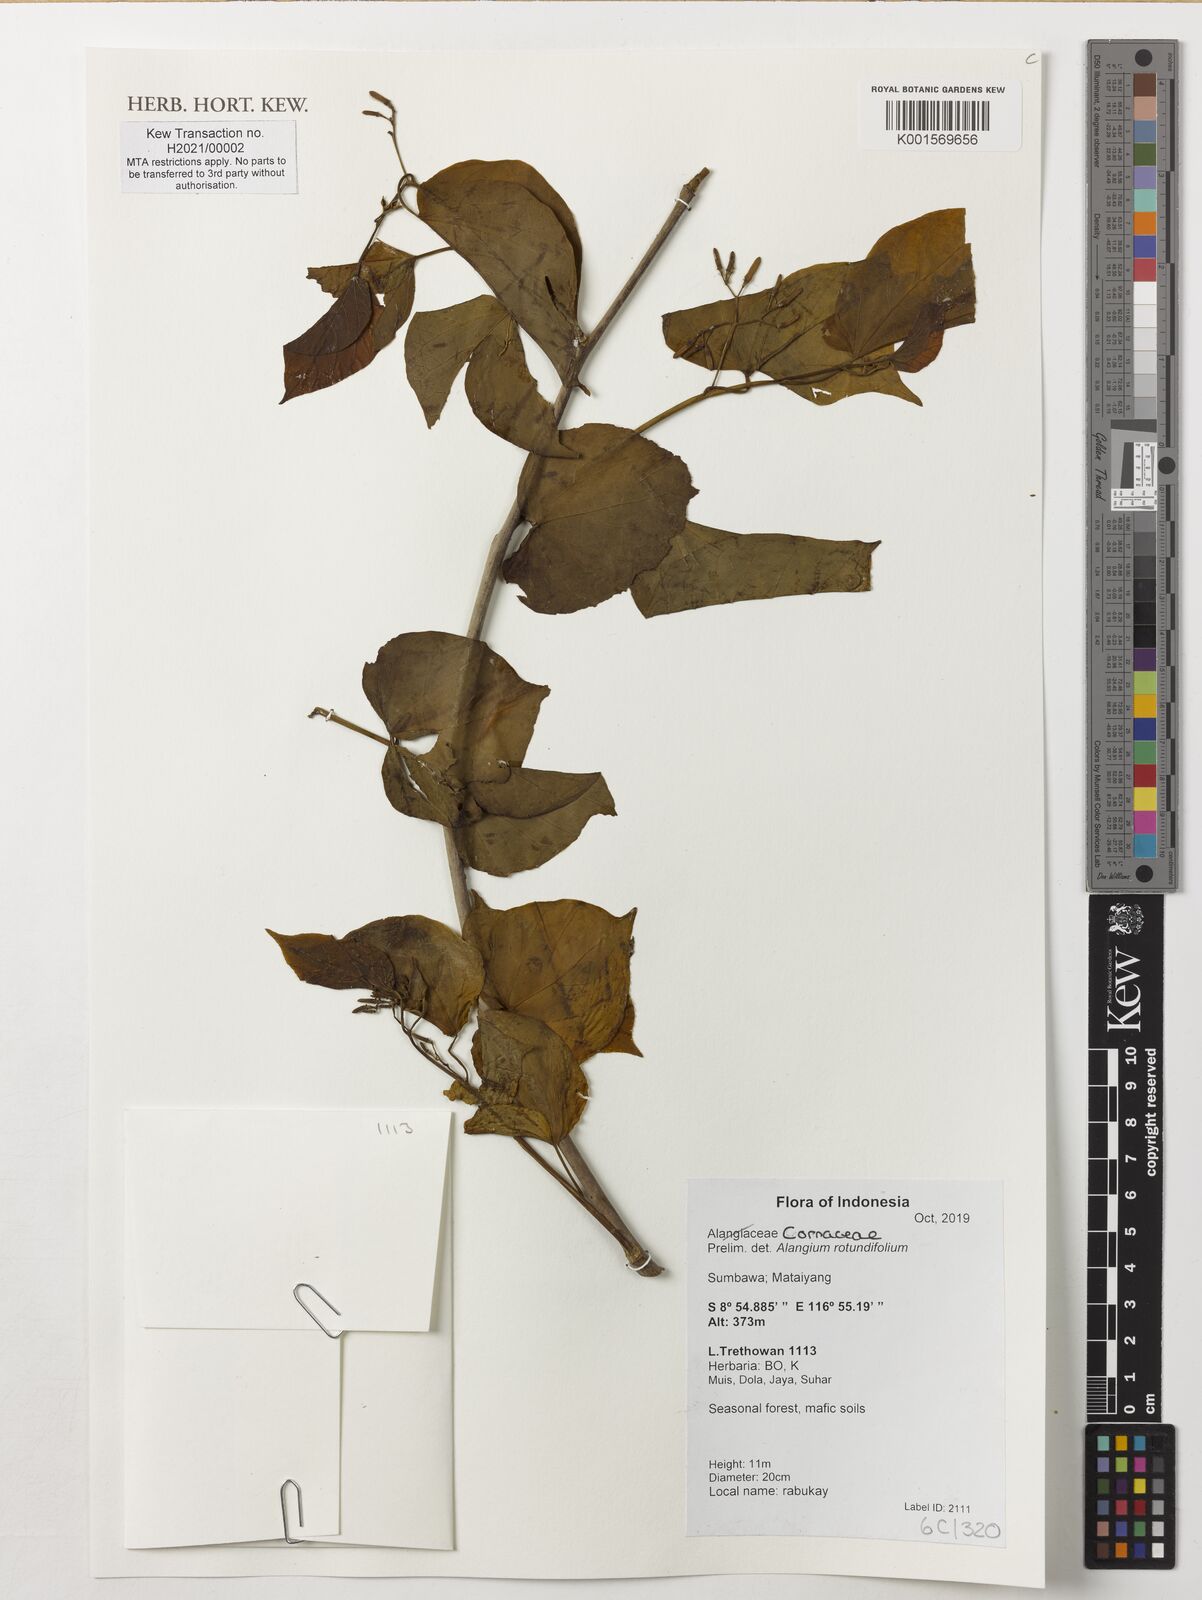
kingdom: Plantae
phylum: Tracheophyta
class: Magnoliopsida
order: Cornales
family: Cornaceae
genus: Alangium
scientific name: Alangium rotundifolium
